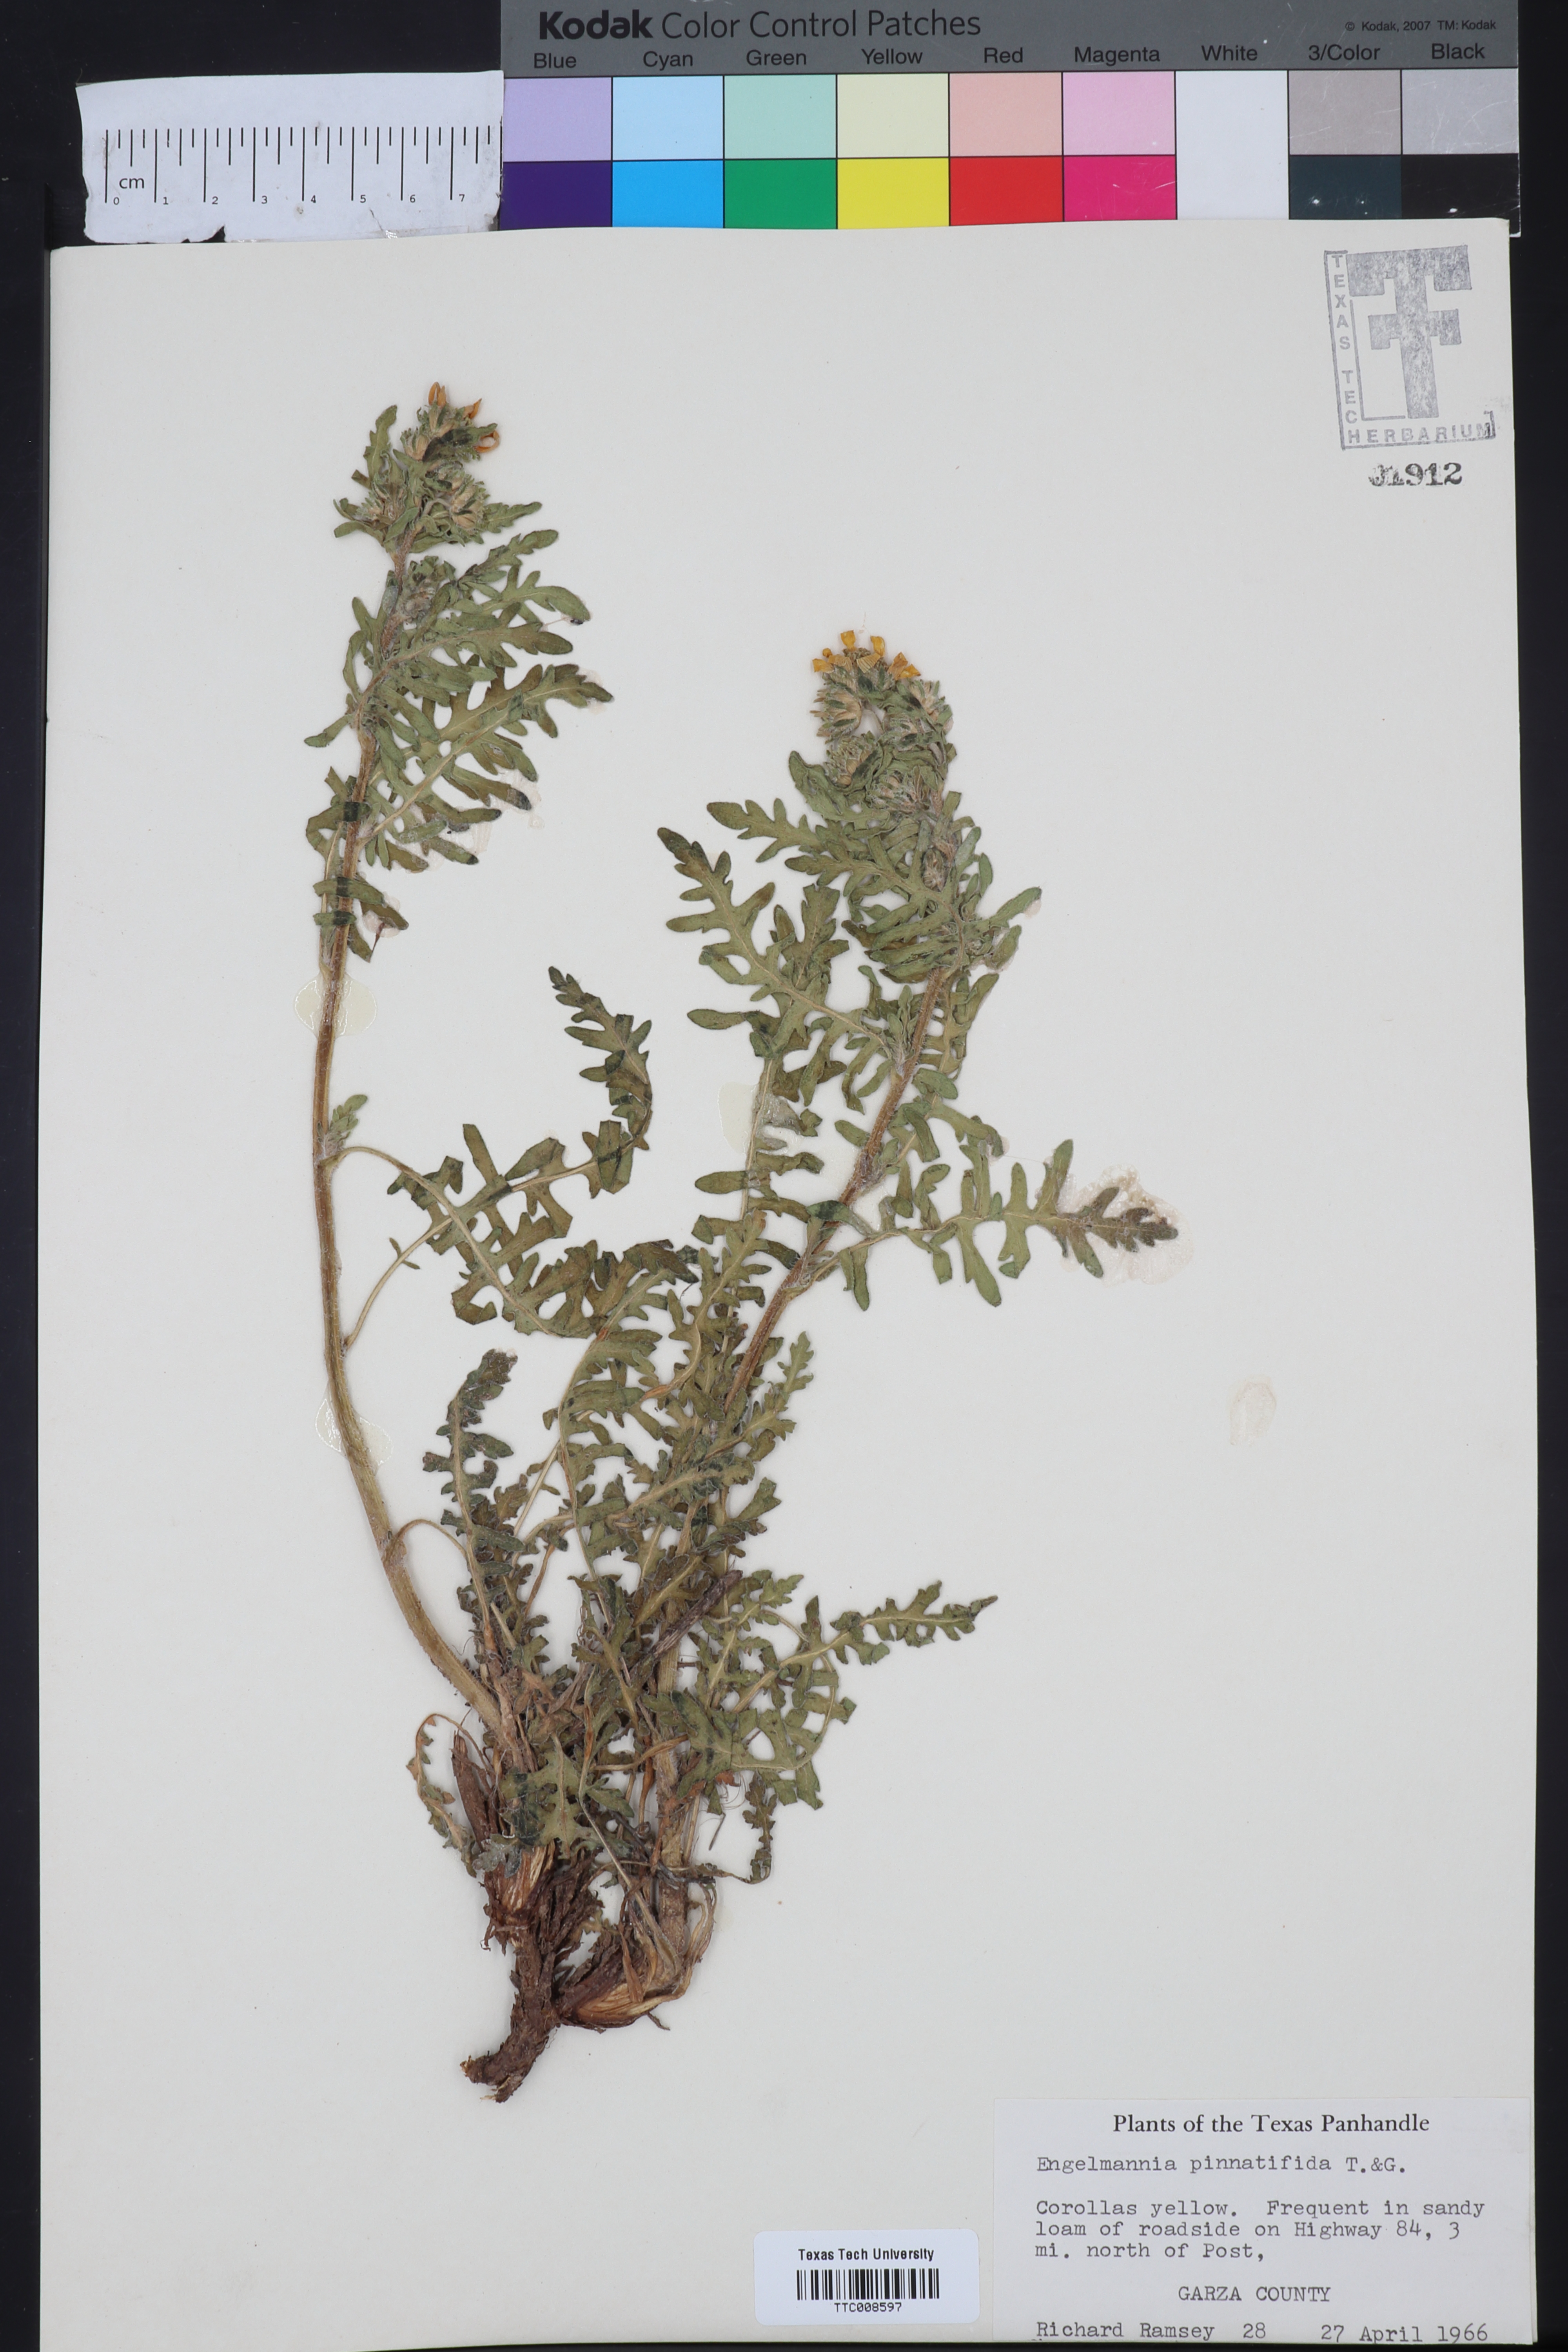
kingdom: Plantae
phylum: Tracheophyta
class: Magnoliopsida
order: Asterales
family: Asteraceae
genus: Engelmannia
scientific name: Engelmannia peristenia
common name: Engelmann's daisy
